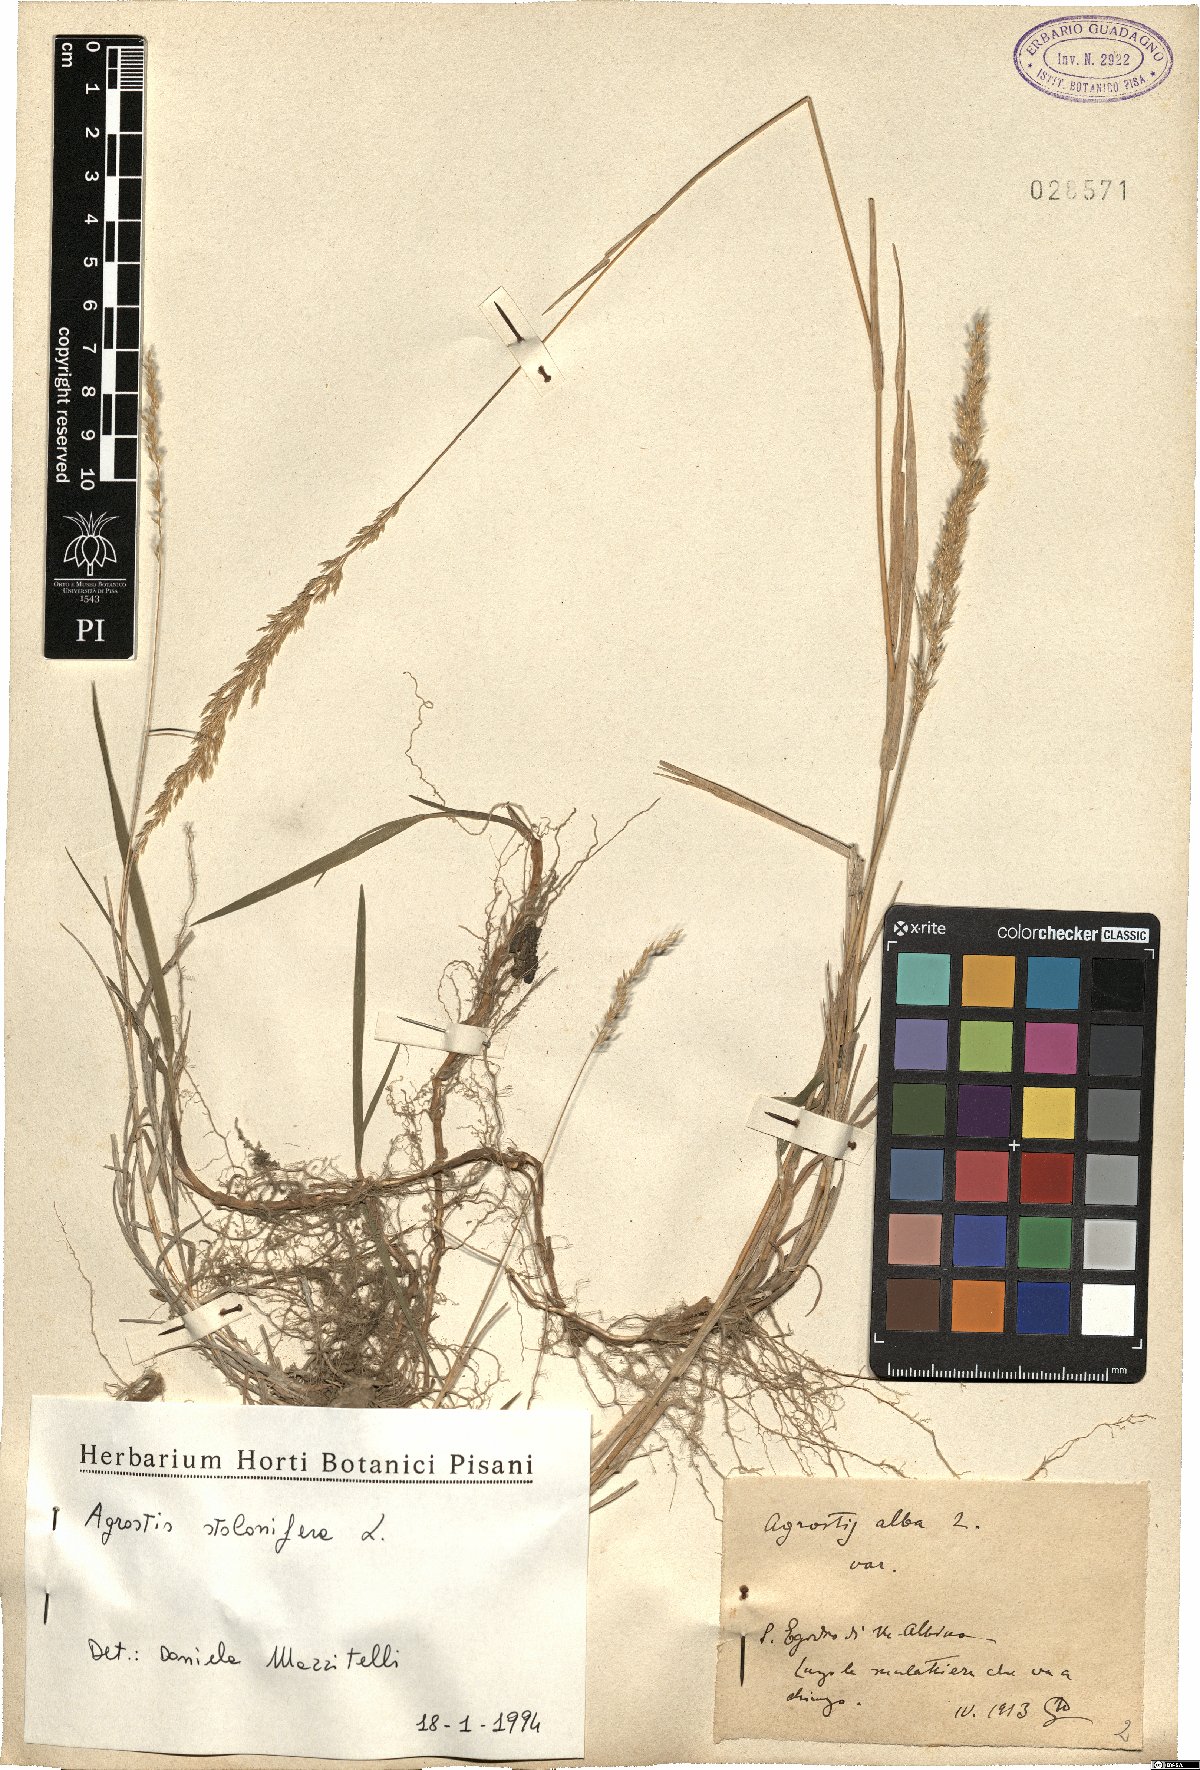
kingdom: Plantae
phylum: Tracheophyta
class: Liliopsida
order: Poales
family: Poaceae
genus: Agrostis
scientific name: Agrostis stolonifera
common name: Creeping bentgrass
